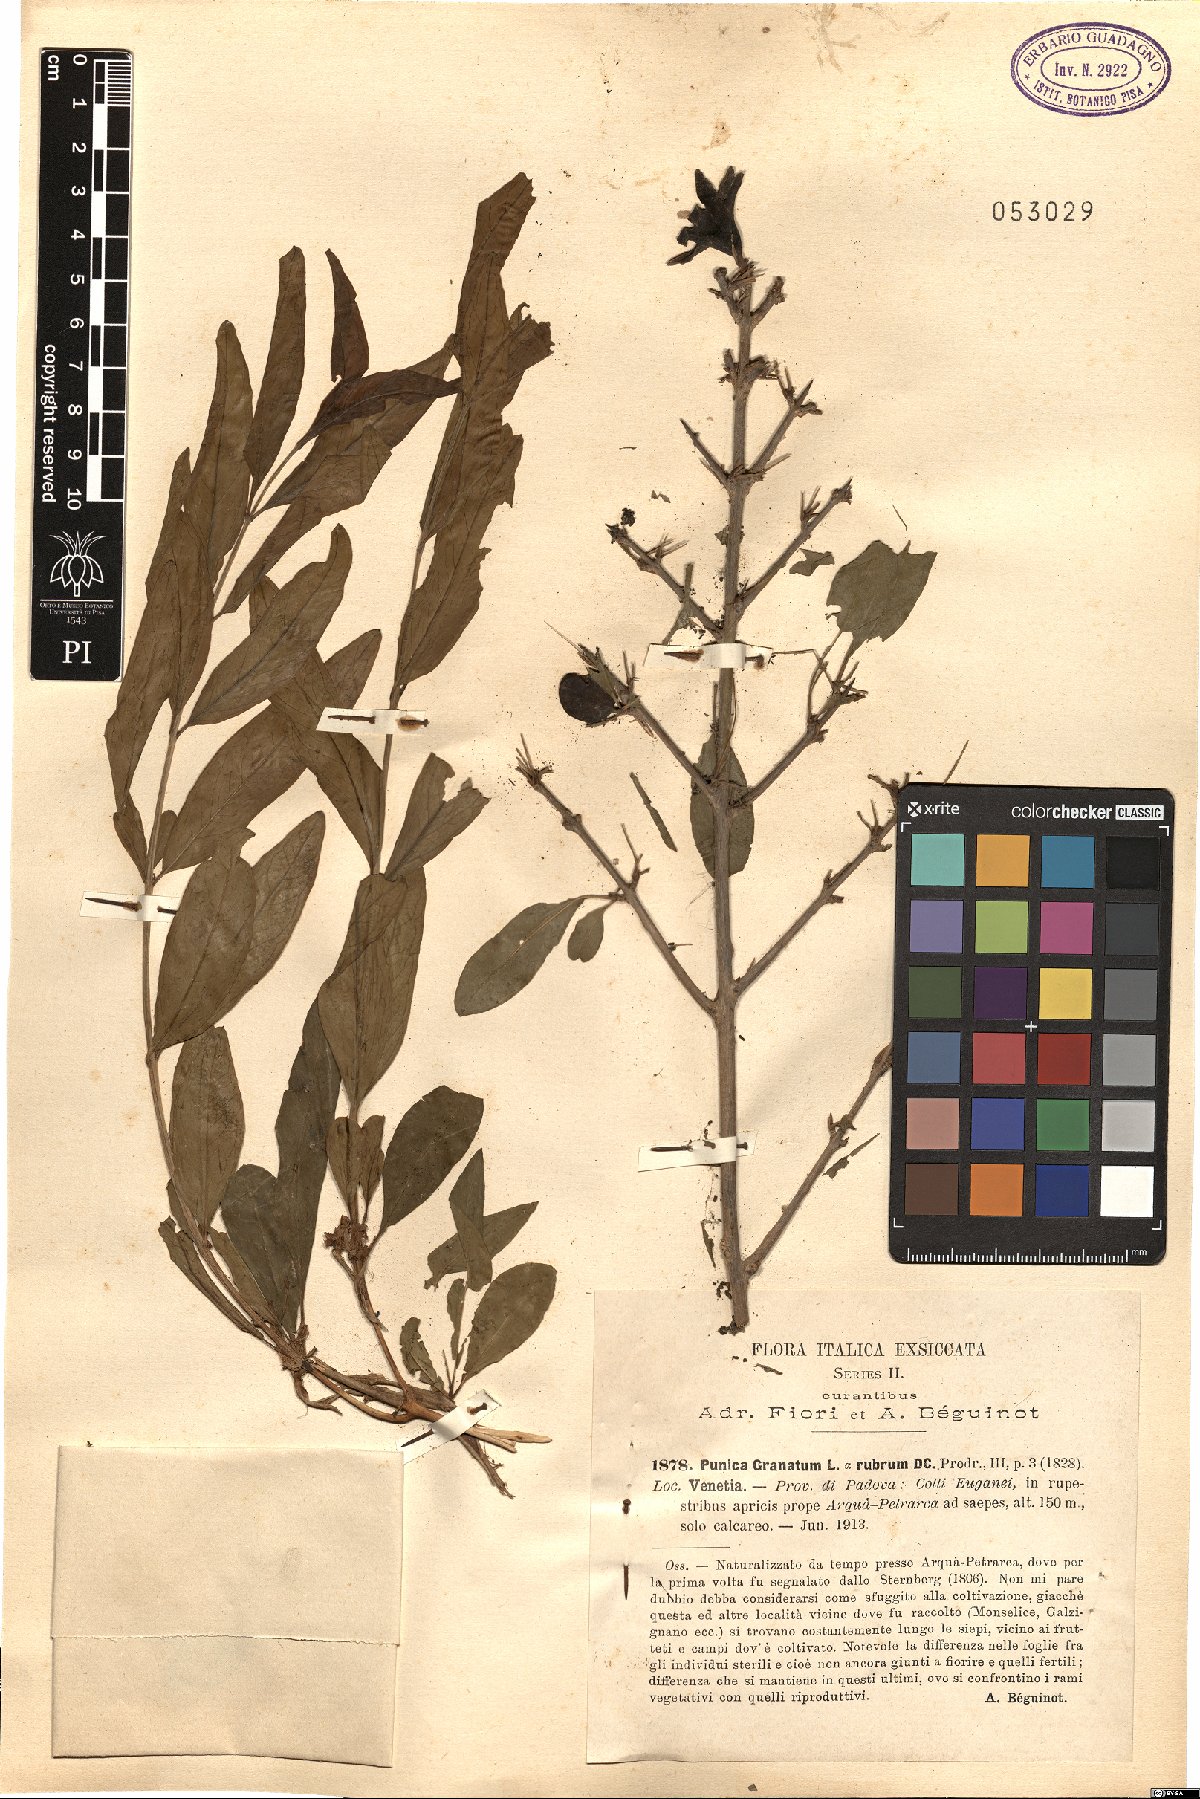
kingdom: Plantae
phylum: Tracheophyta
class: Magnoliopsida
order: Myrtales
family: Lythraceae
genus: Punica
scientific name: Punica granatum
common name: Pomegranate
